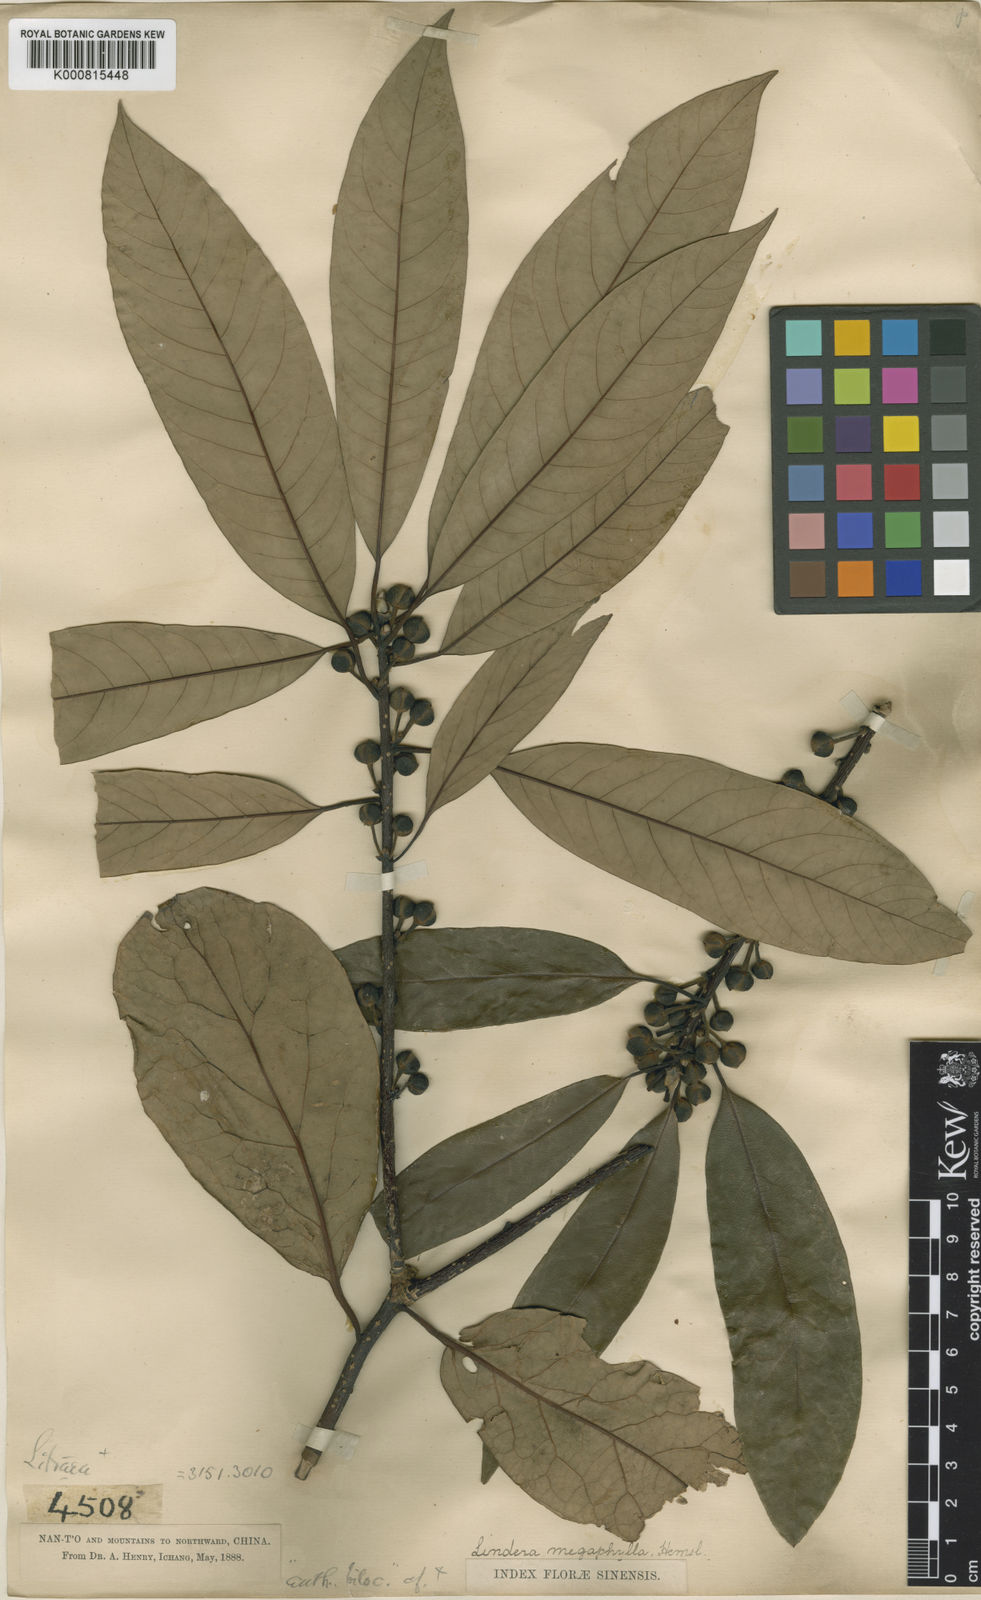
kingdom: Plantae
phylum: Tracheophyta
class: Magnoliopsida
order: Laurales
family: Lauraceae
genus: Lindera
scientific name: Lindera megaphylla
